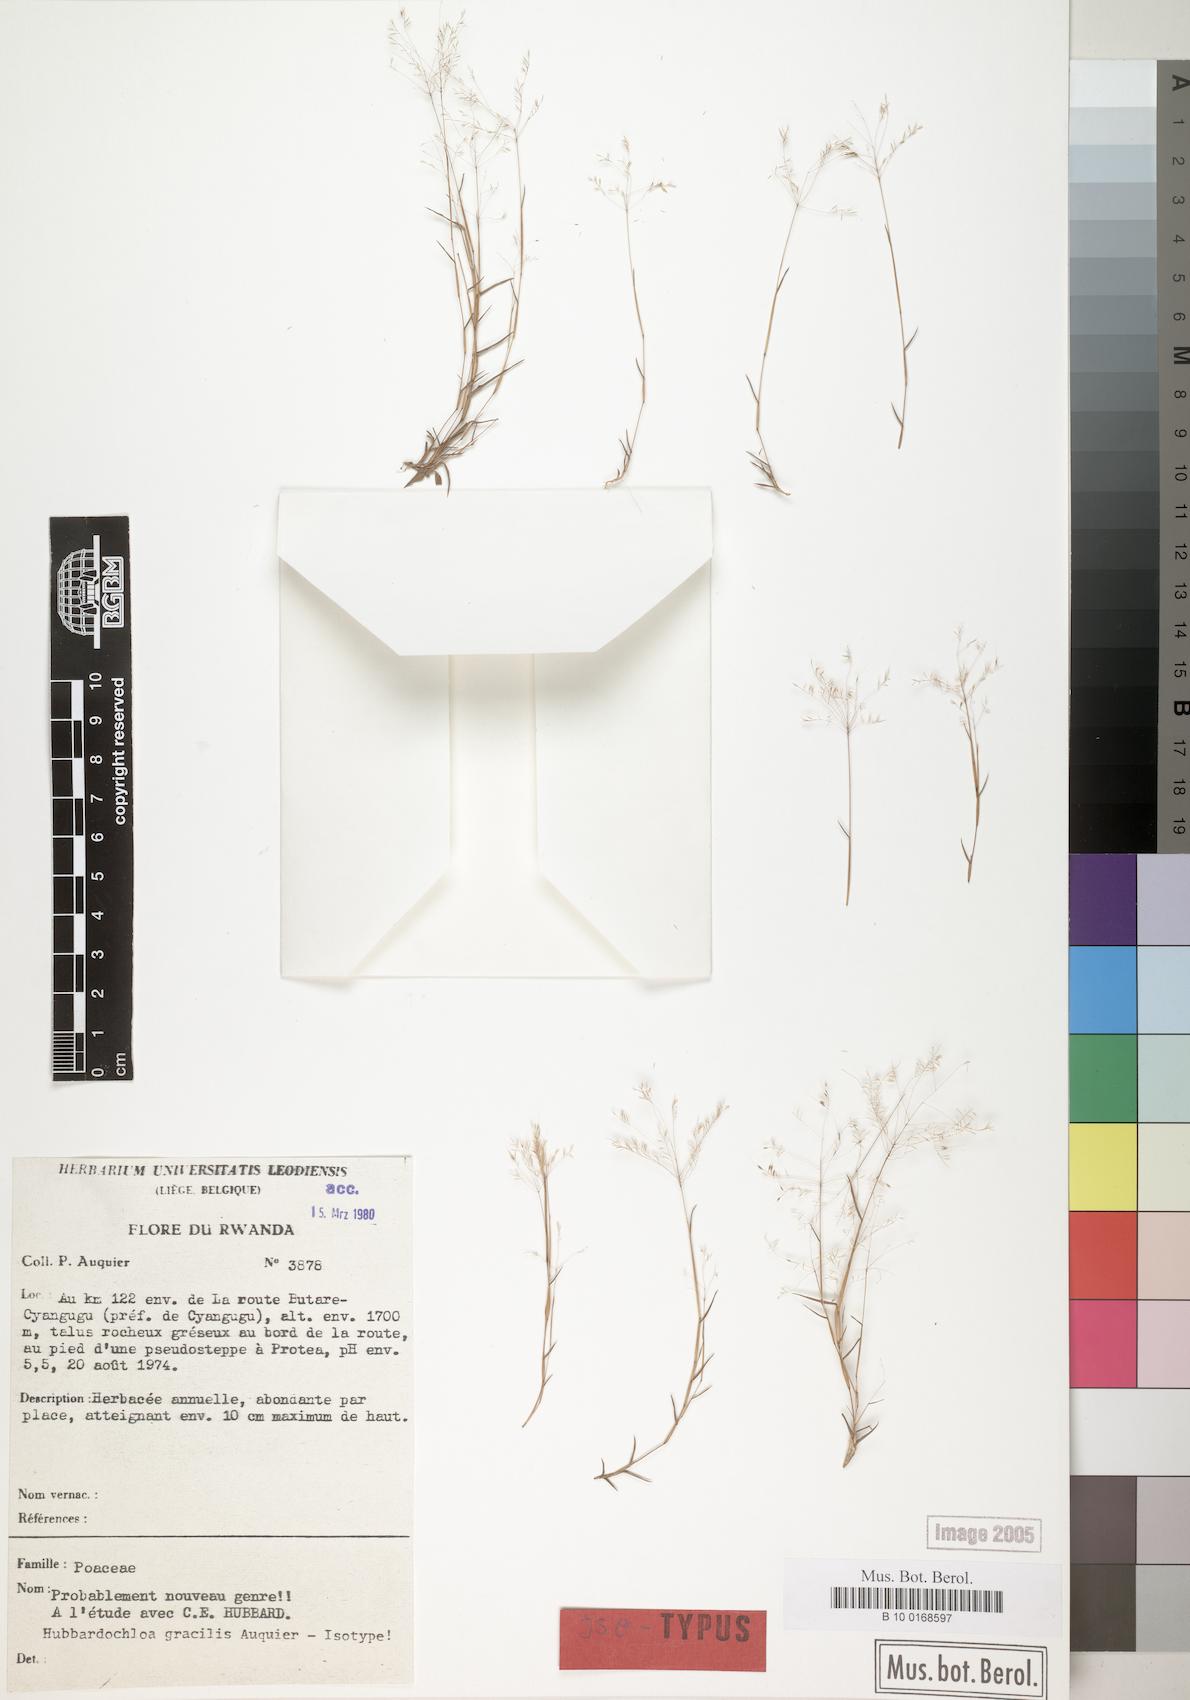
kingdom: Plantae
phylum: Tracheophyta
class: Liliopsida
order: Poales
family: Poaceae
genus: Hubbardochloa
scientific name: Hubbardochloa gracilis
